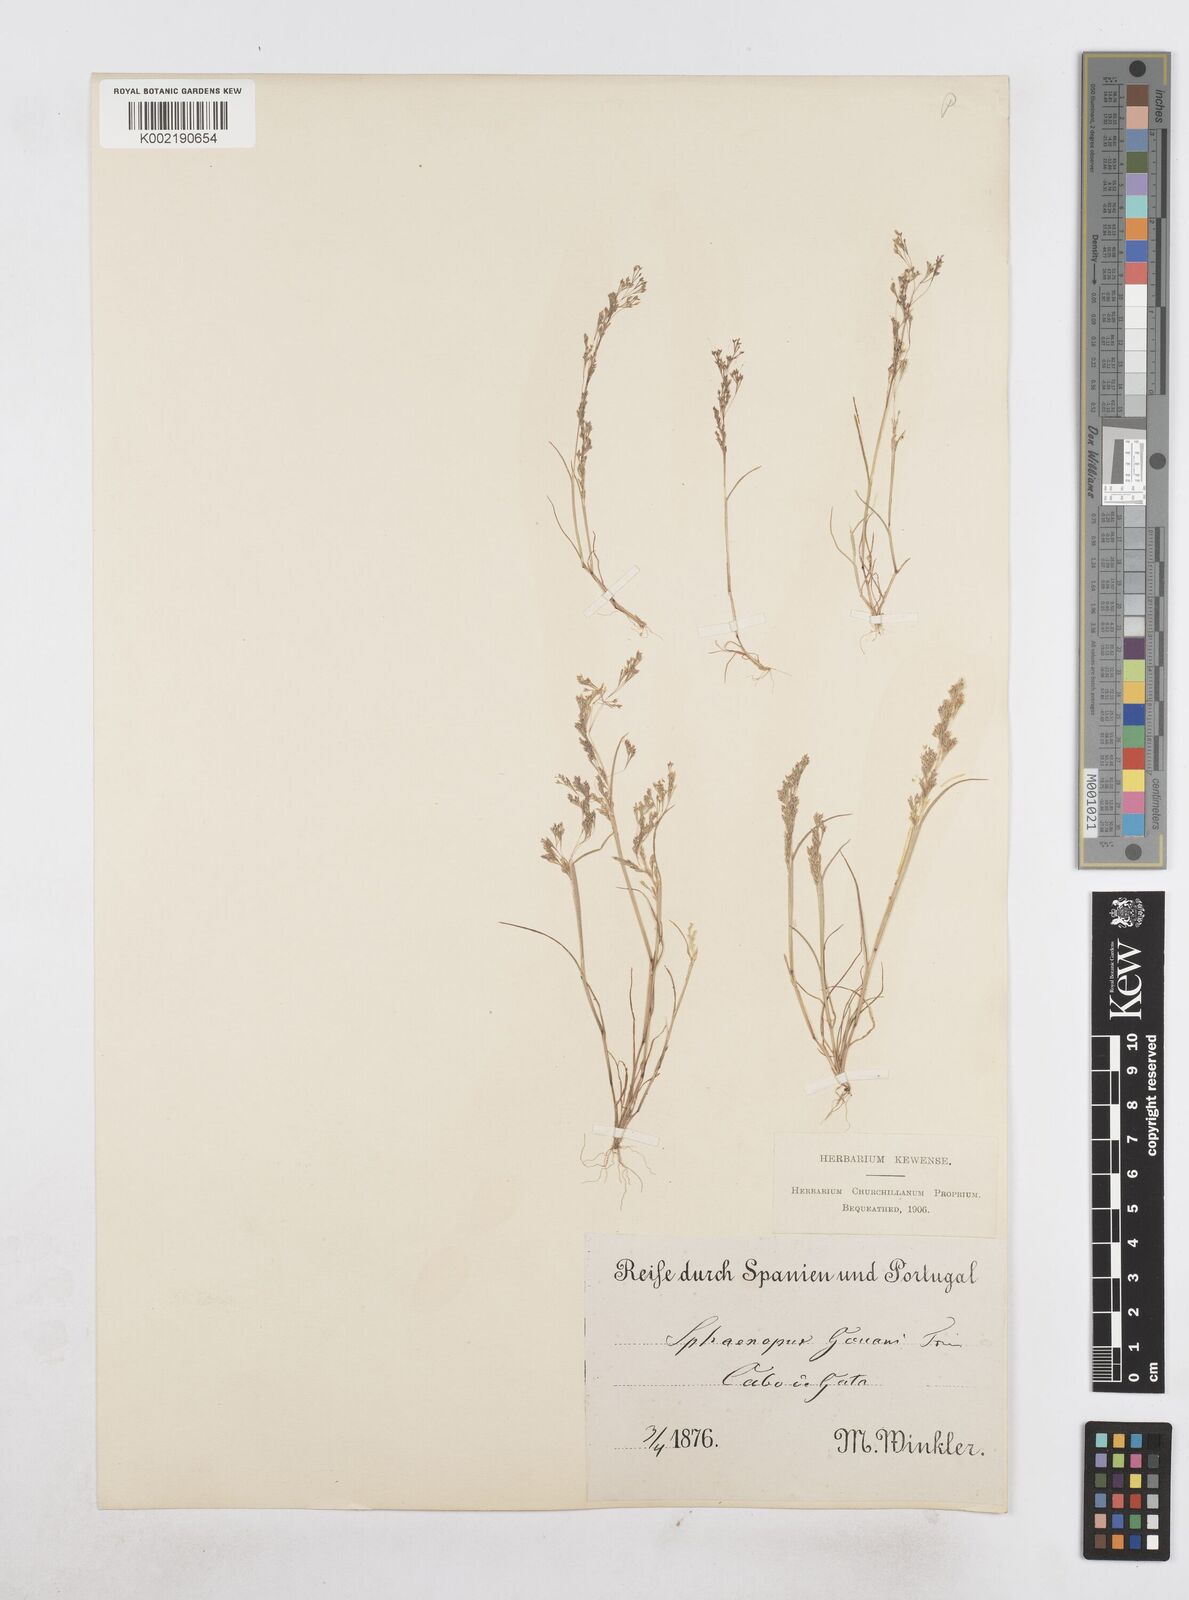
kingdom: Plantae
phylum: Tracheophyta
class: Liliopsida
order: Poales
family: Poaceae
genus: Sphenopus
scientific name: Sphenopus divaricatus
